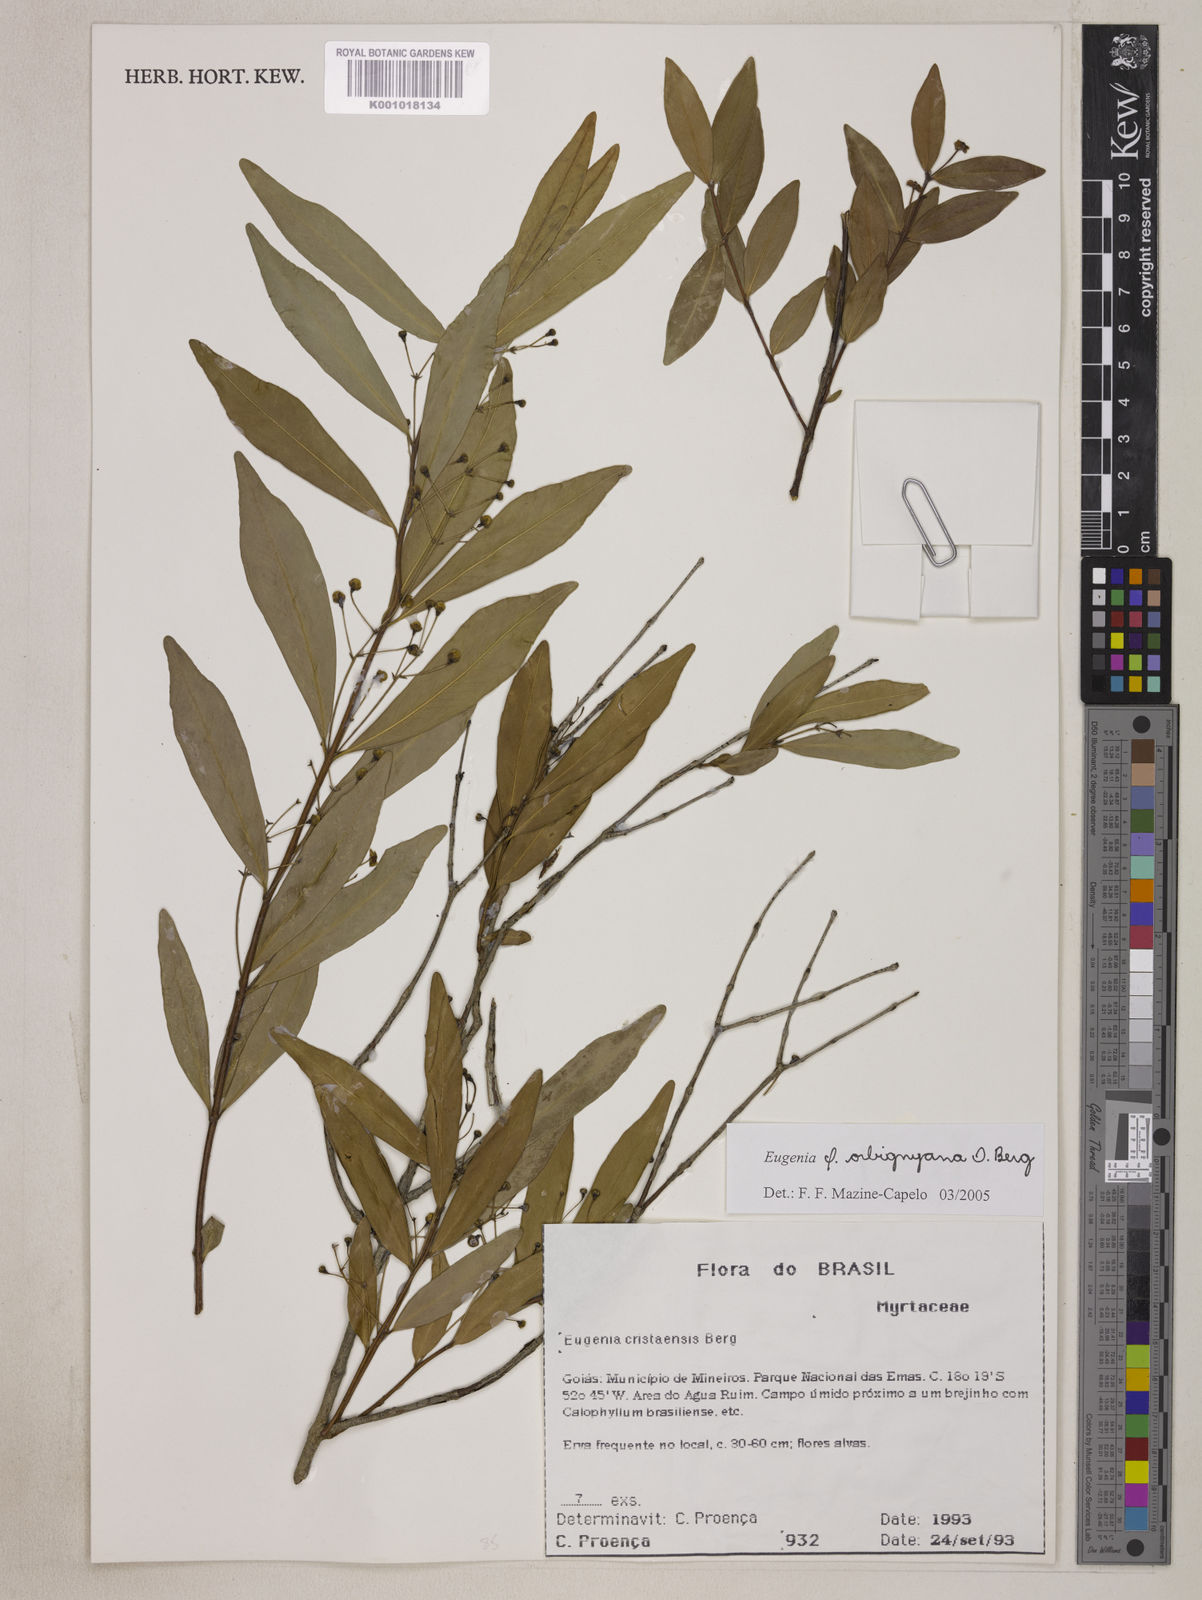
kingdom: Plantae
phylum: Tracheophyta
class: Magnoliopsida
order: Myrtales
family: Myrtaceae
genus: Eugenia
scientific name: Eugenia orbignyana
